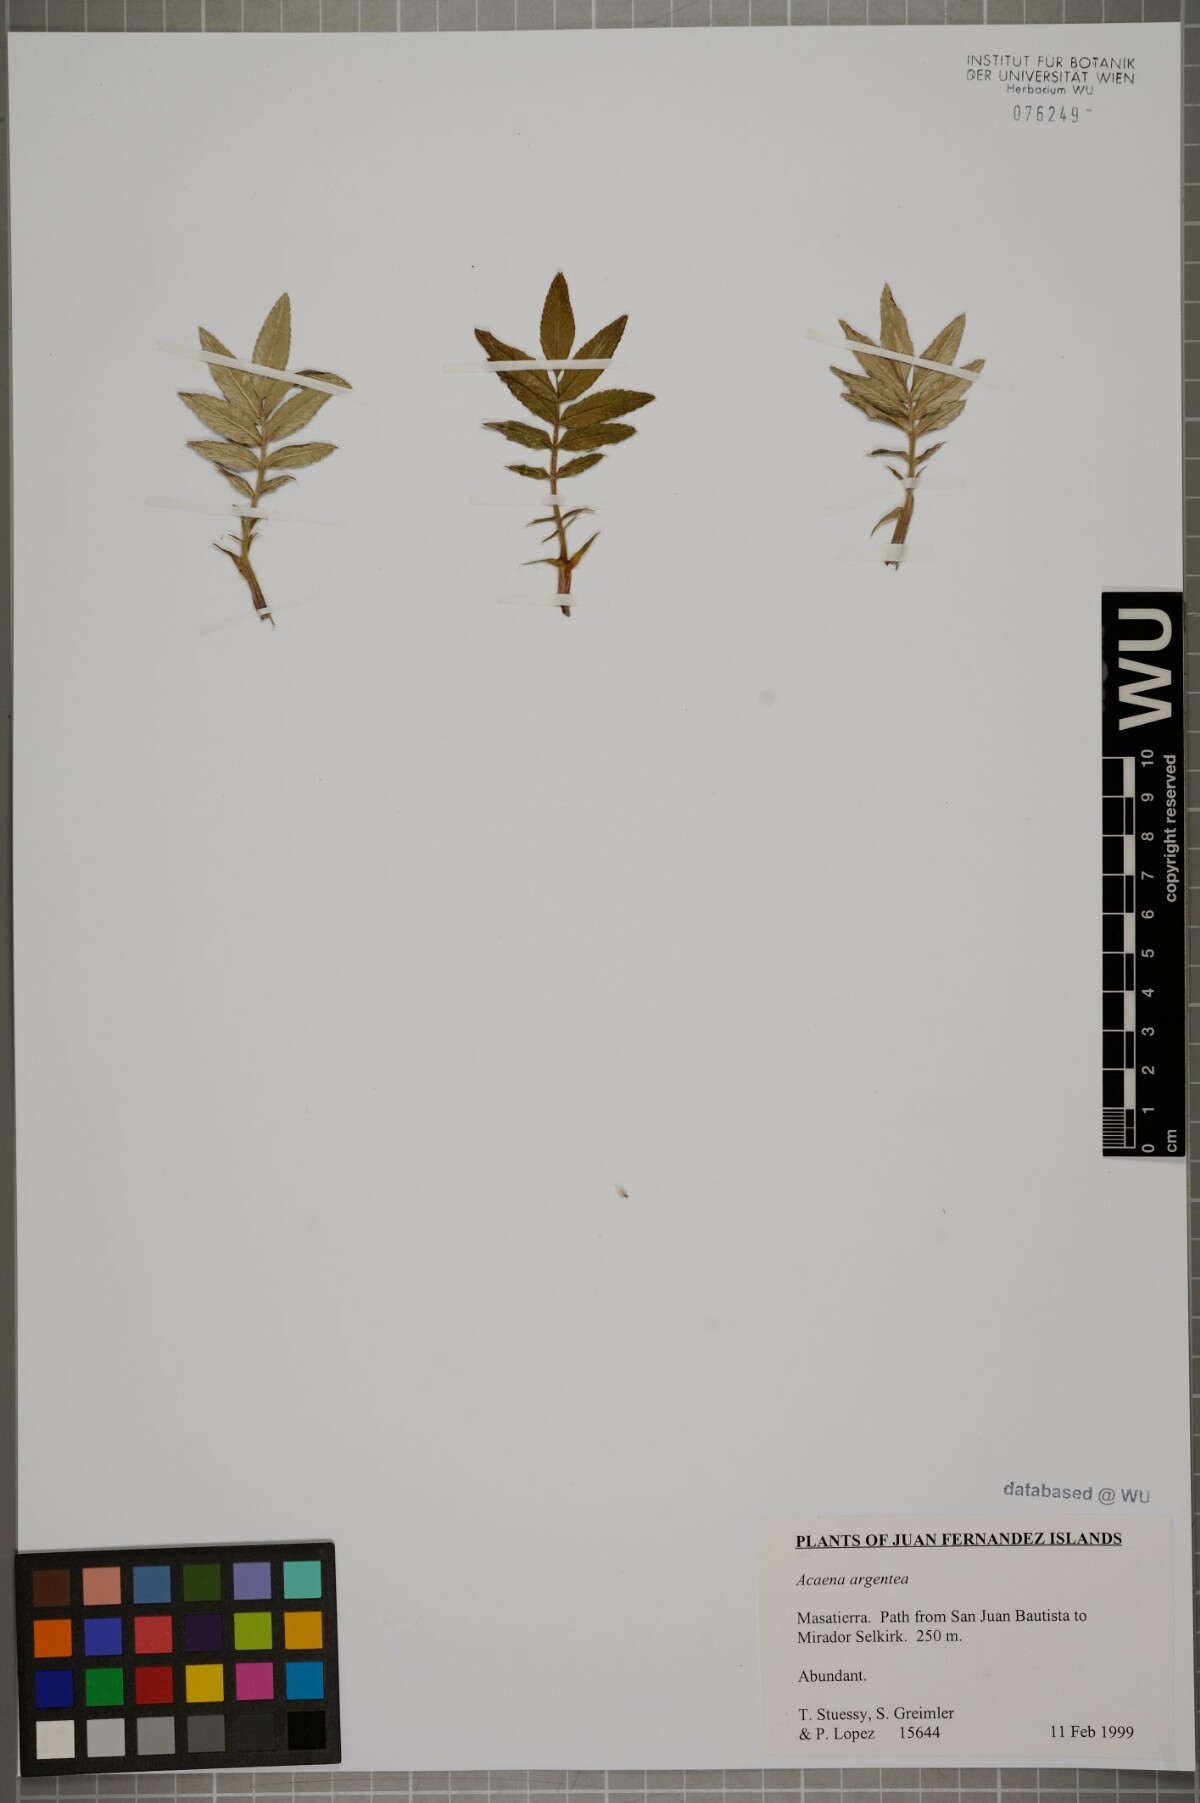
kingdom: Plantae
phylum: Tracheophyta
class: Magnoliopsida
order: Rosales
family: Rosaceae
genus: Acaena
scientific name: Acaena argentea
